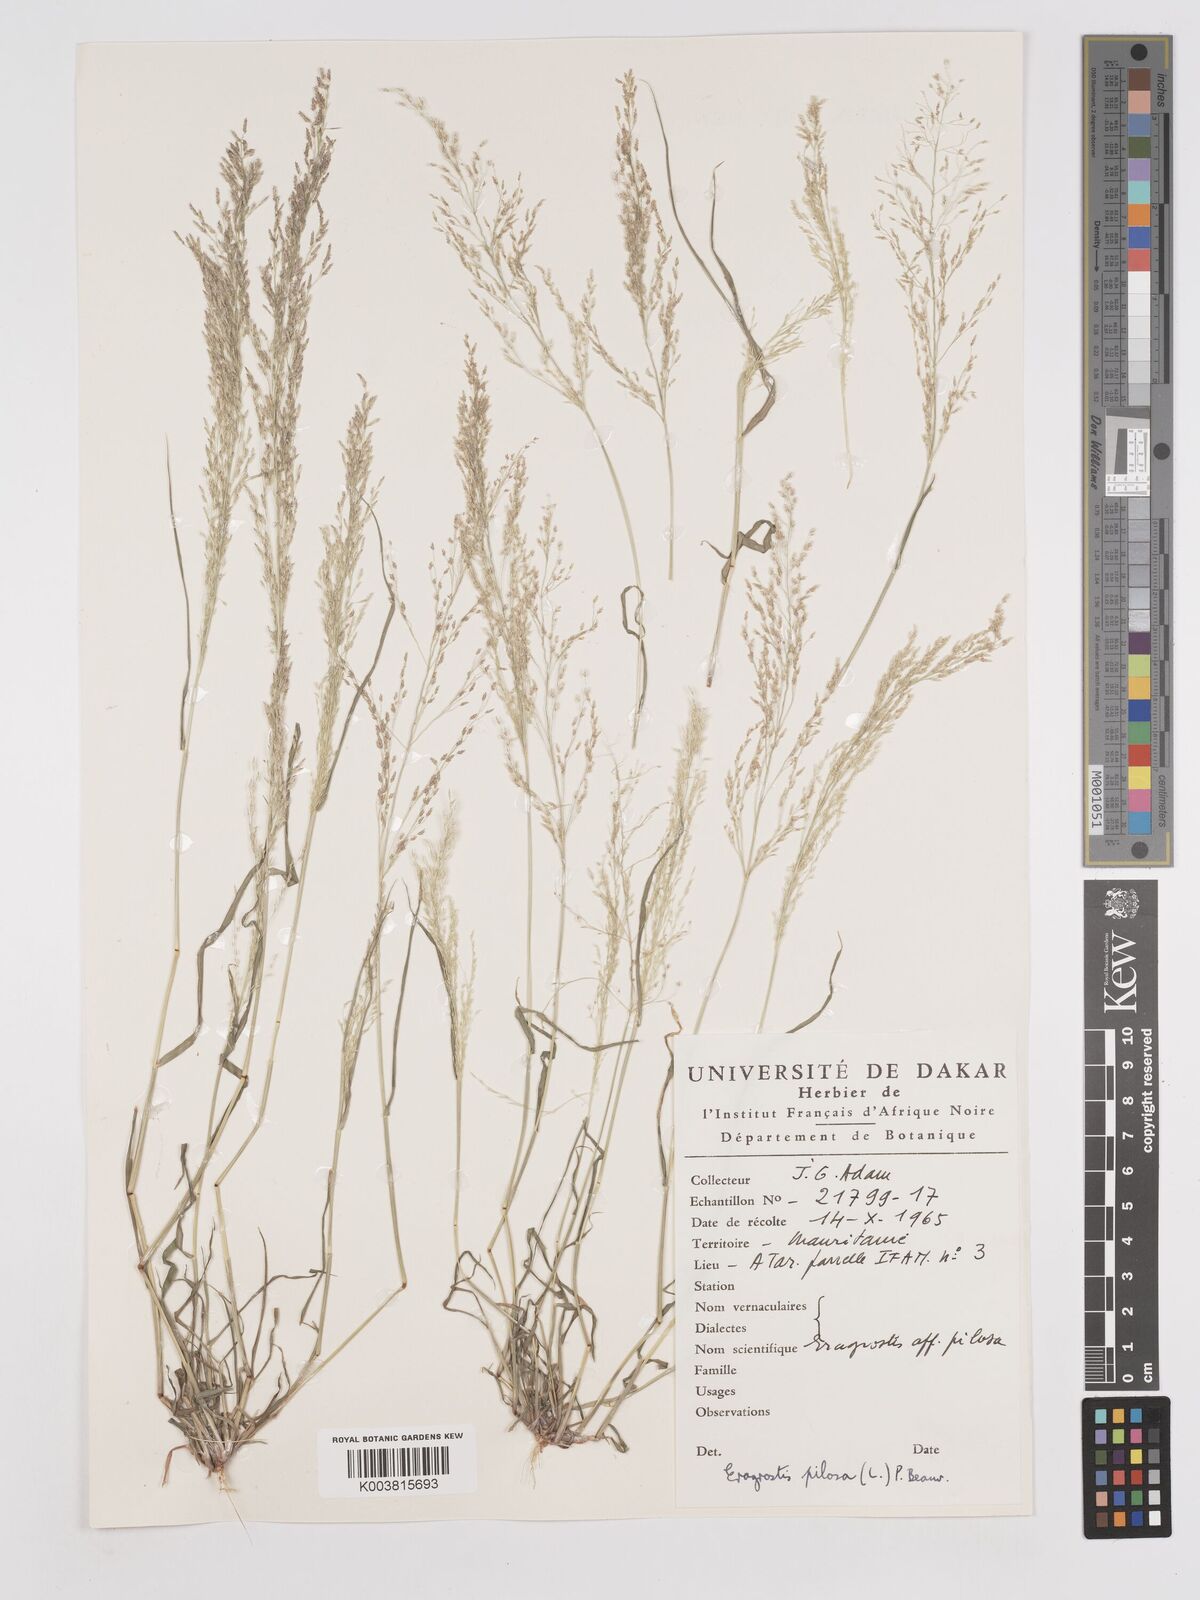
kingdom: Plantae
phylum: Tracheophyta
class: Liliopsida
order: Poales
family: Poaceae
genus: Eragrostis
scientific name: Eragrostis pilosa
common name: Indian lovegrass
